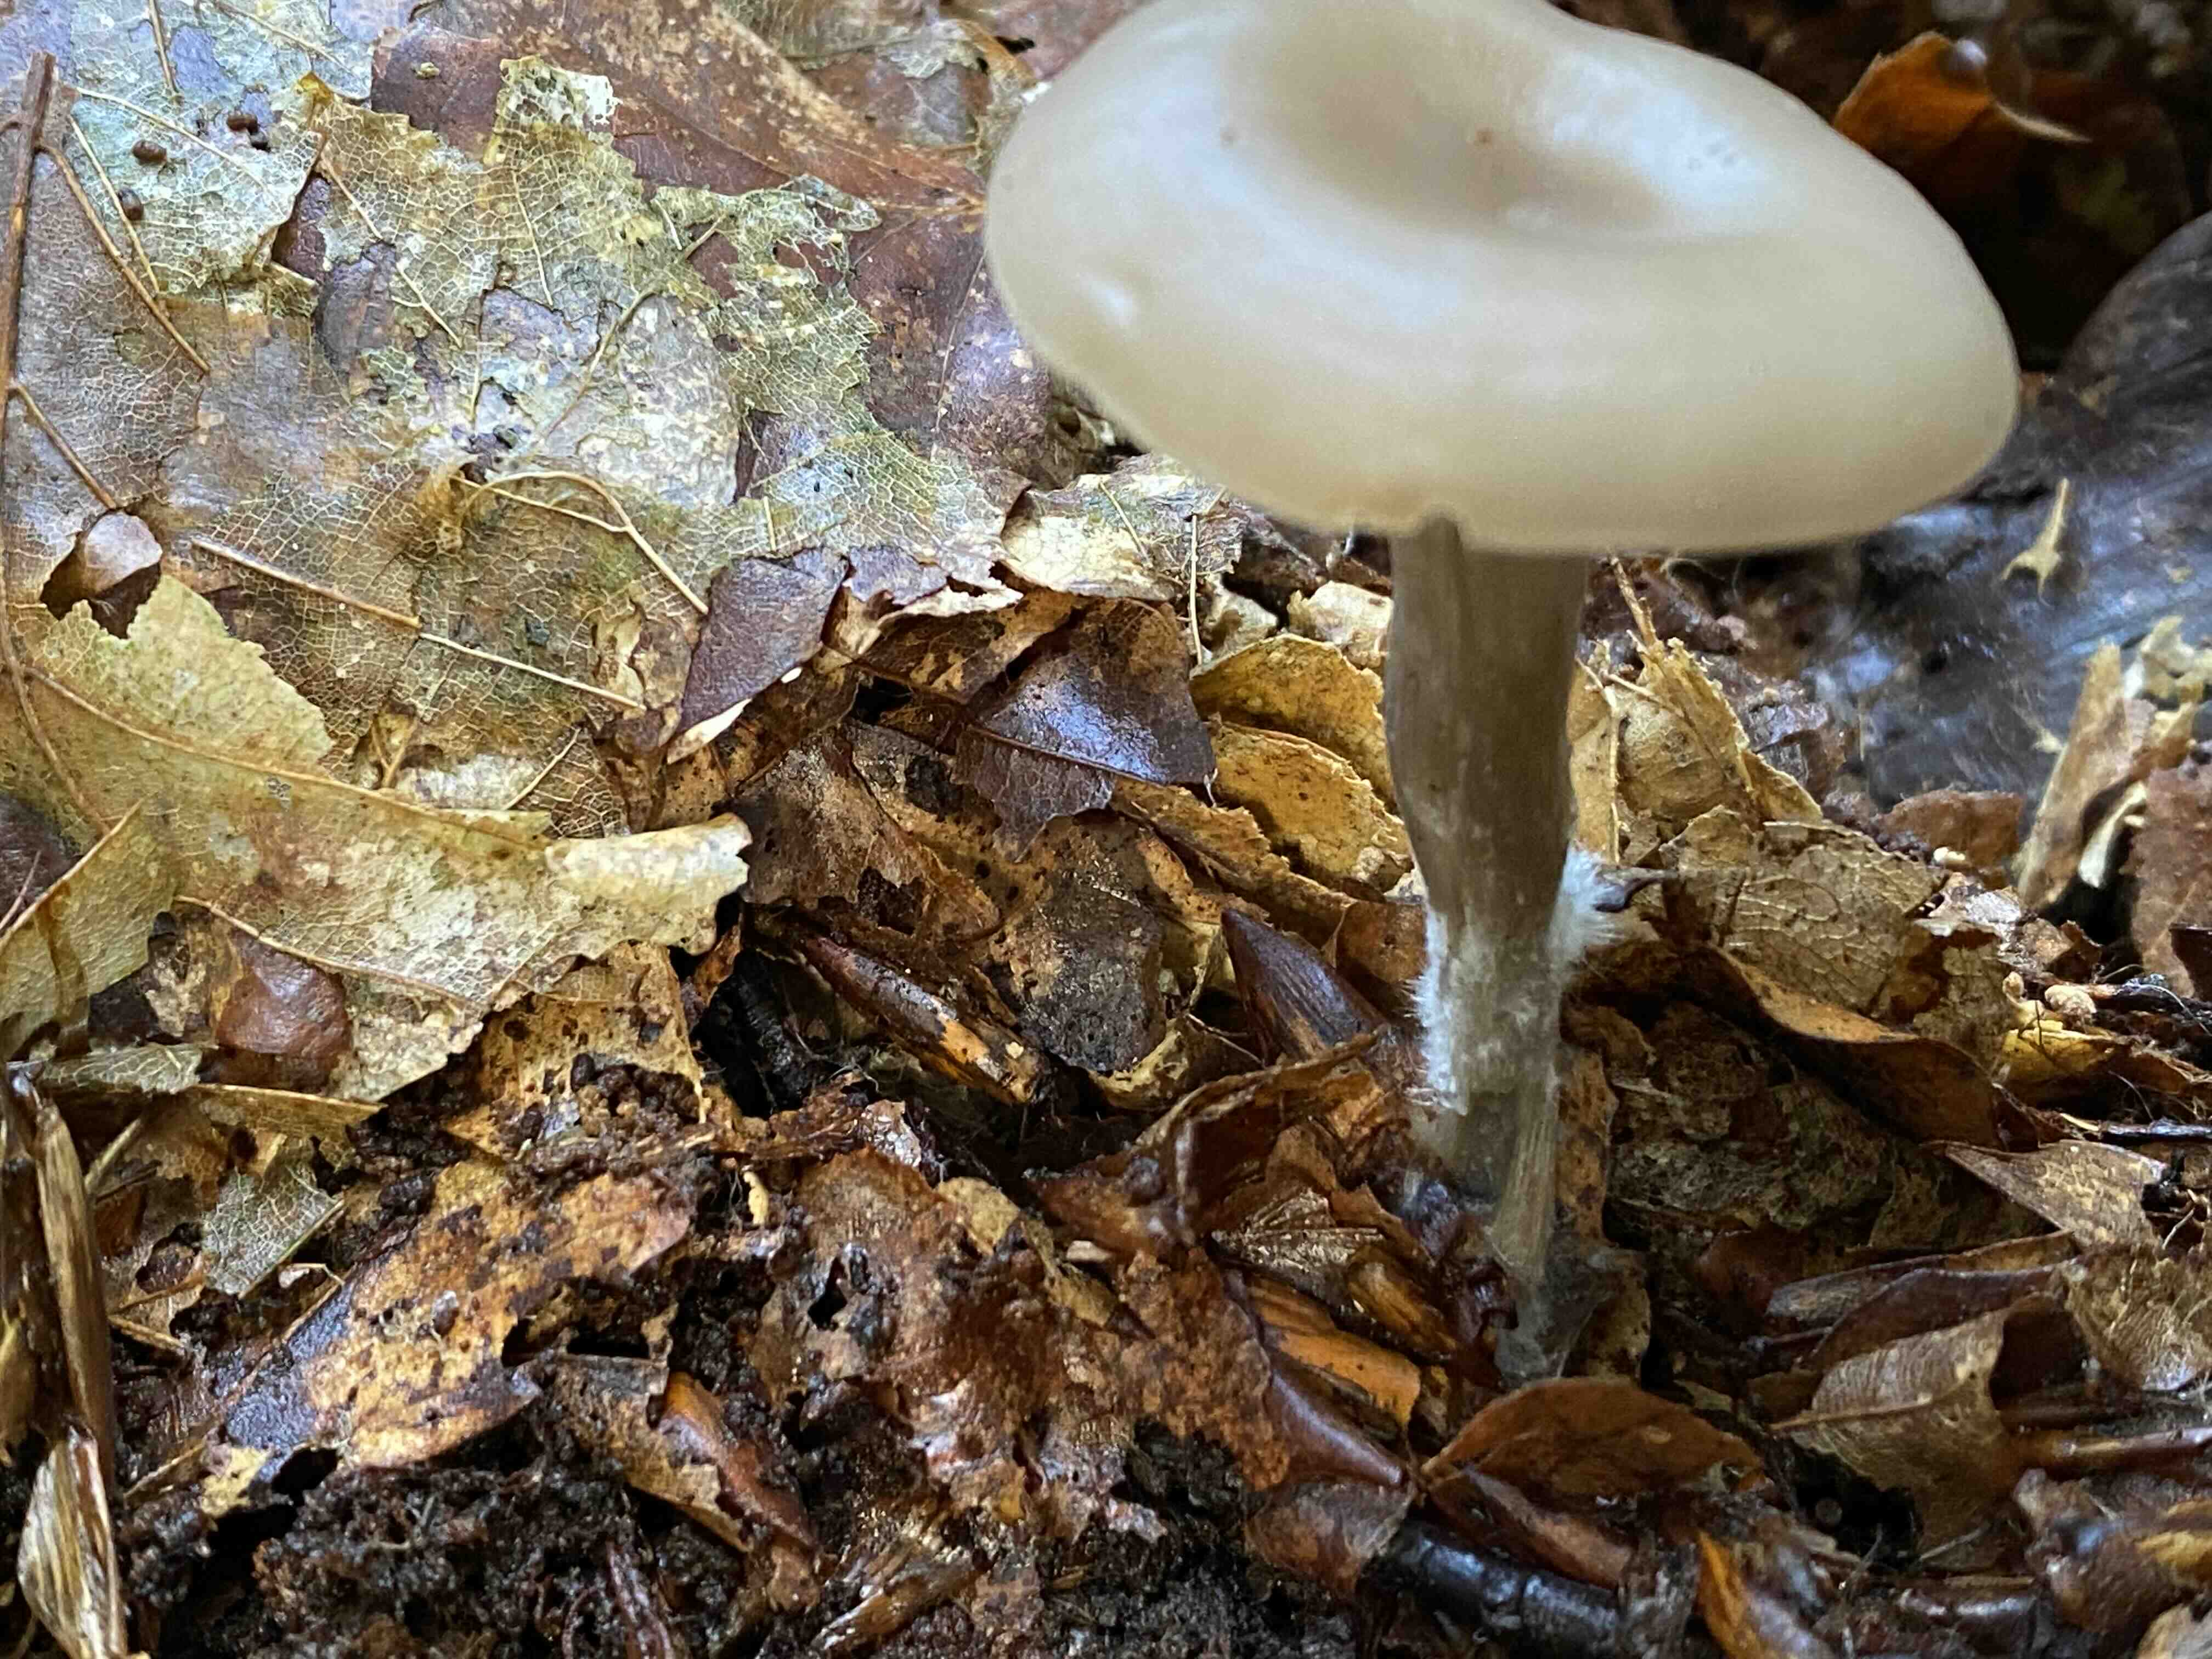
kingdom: Fungi
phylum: Basidiomycota
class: Agaricomycetes
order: Agaricales
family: Tricholomataceae
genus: Clitocybe
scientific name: Clitocybe metachroa
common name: grå tragthat
